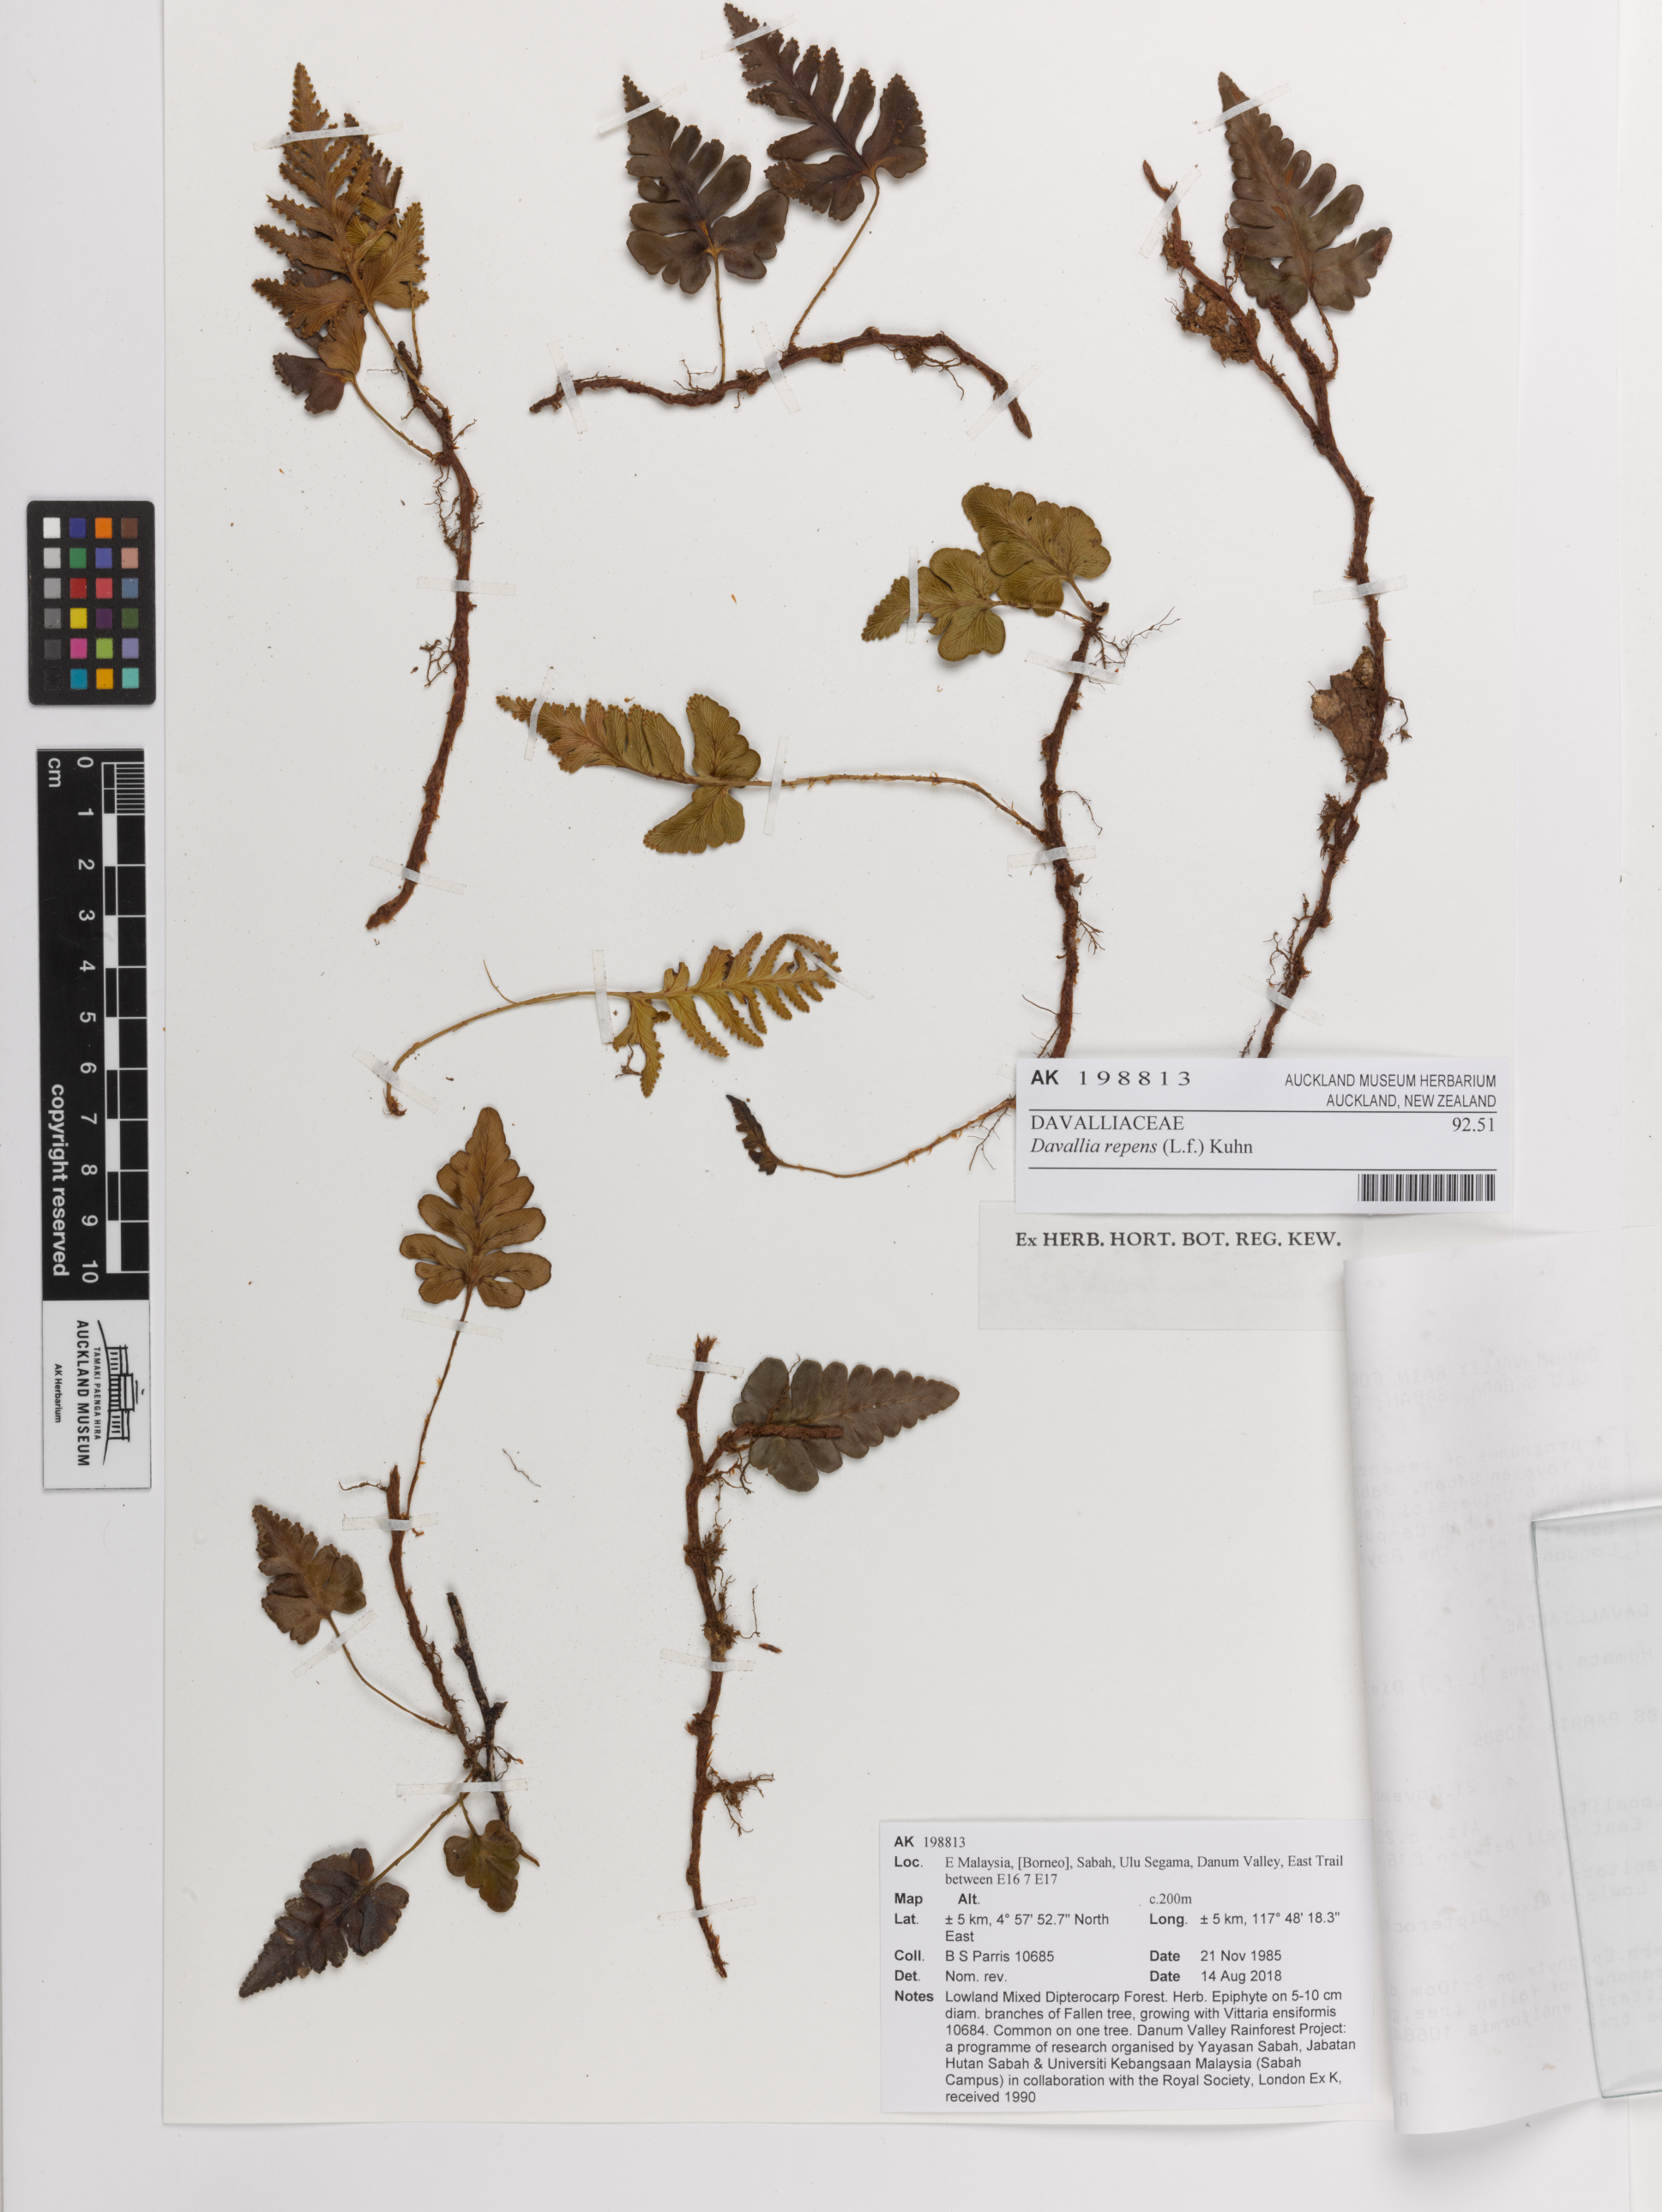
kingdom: Plantae
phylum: Tracheophyta
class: Polypodiopsida
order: Polypodiales
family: Davalliaceae
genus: Davallia
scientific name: Davallia repens
